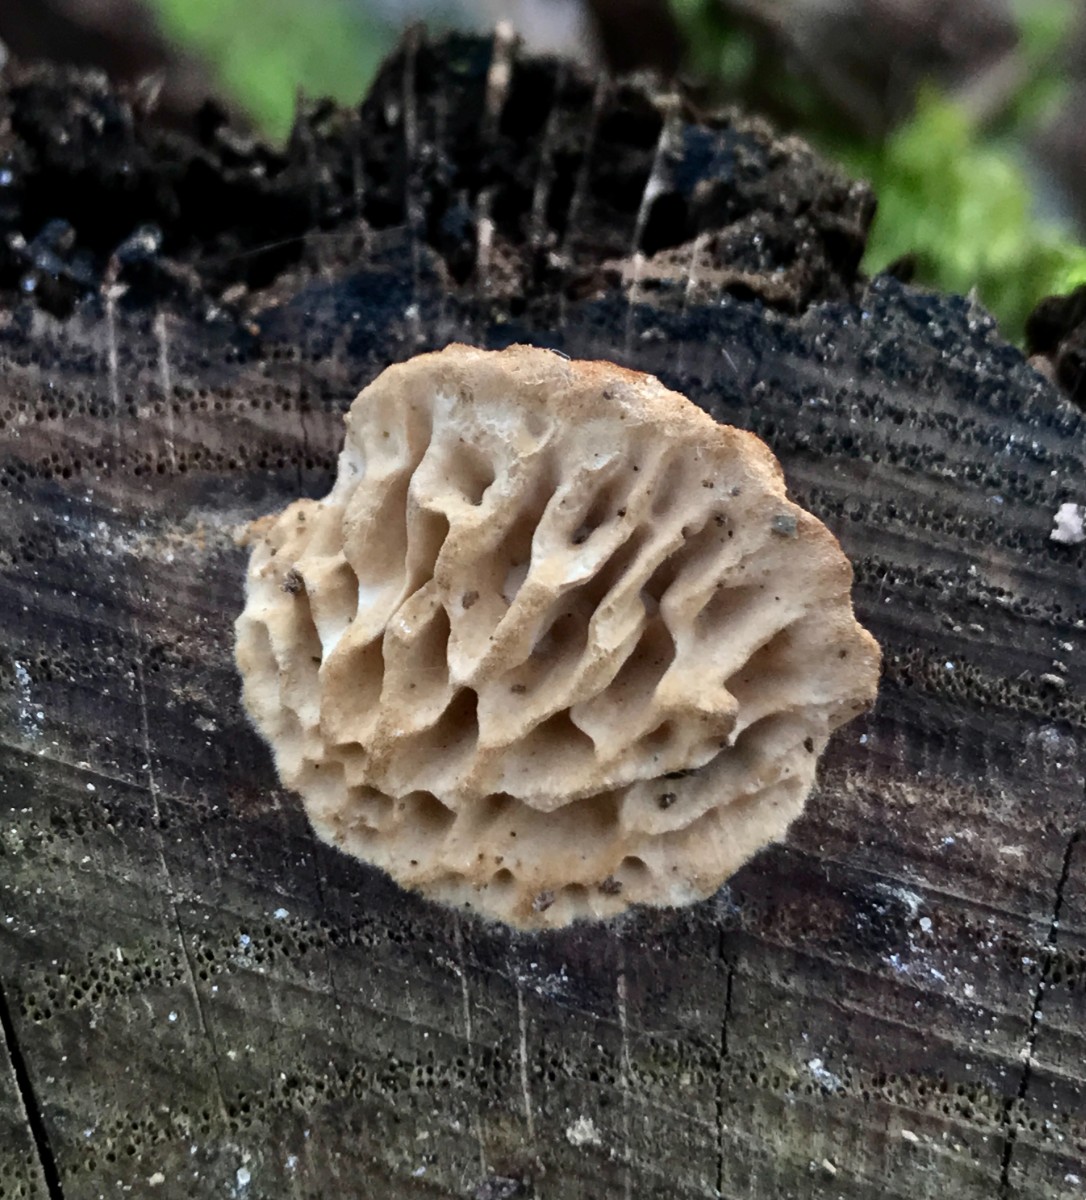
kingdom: Fungi
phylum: Basidiomycota
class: Agaricomycetes
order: Polyporales
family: Fomitopsidaceae
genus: Daedalea
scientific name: Daedalea quercina
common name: ege-labyrintsvamp
